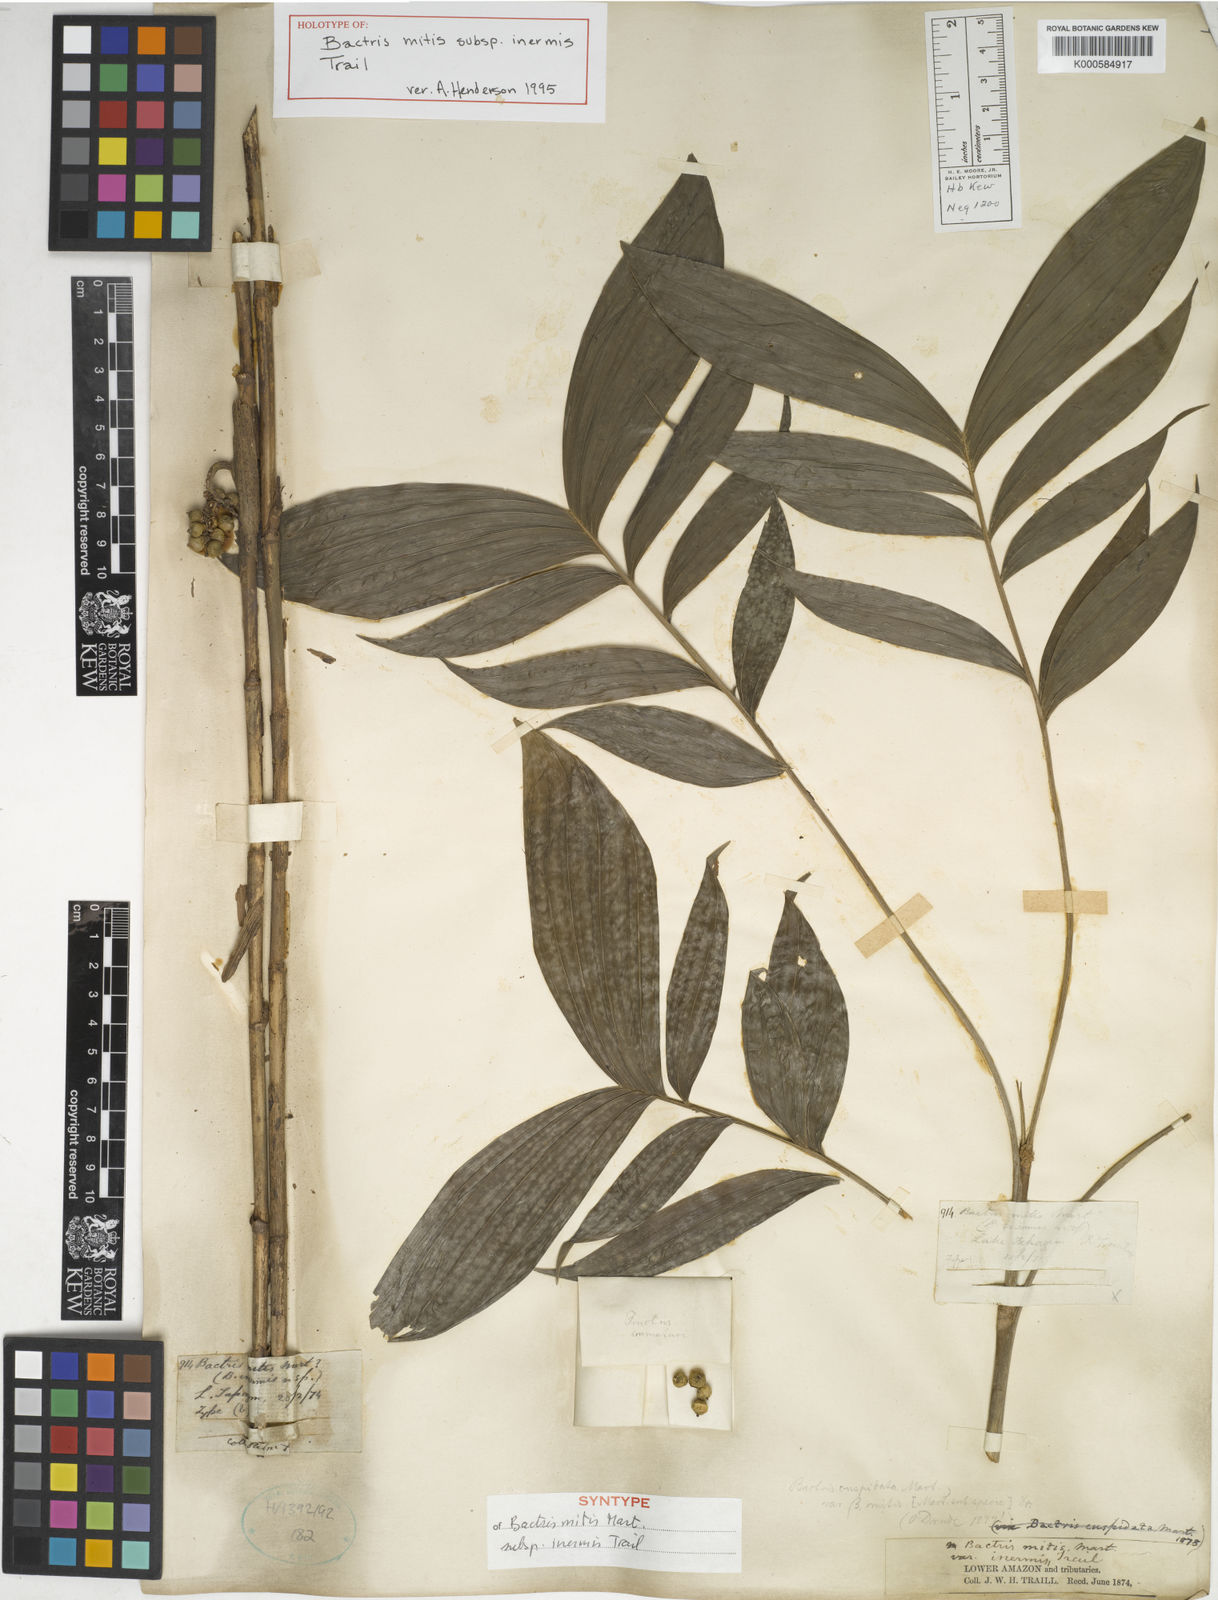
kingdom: Plantae
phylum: Tracheophyta
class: Liliopsida
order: Arecales
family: Arecaceae
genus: Bactris
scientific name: Bactris simplicifrons
